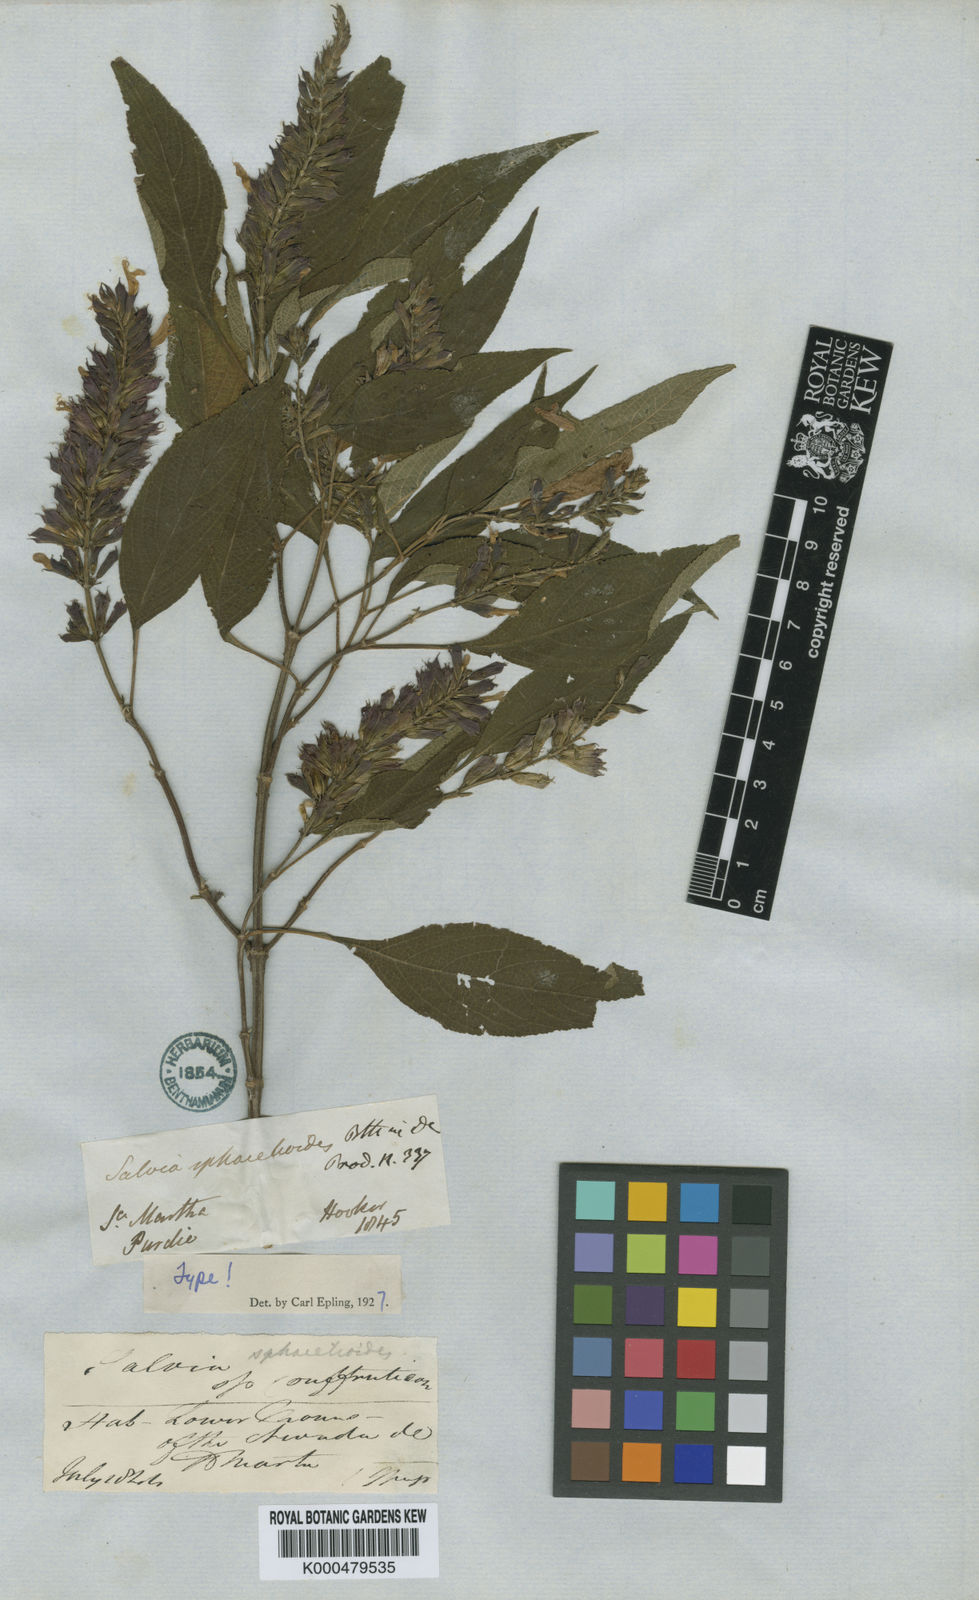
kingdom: Plantae
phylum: Tracheophyta
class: Magnoliopsida
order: Lamiales
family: Lamiaceae
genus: Salvia
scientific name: Salvia sphacelioides
